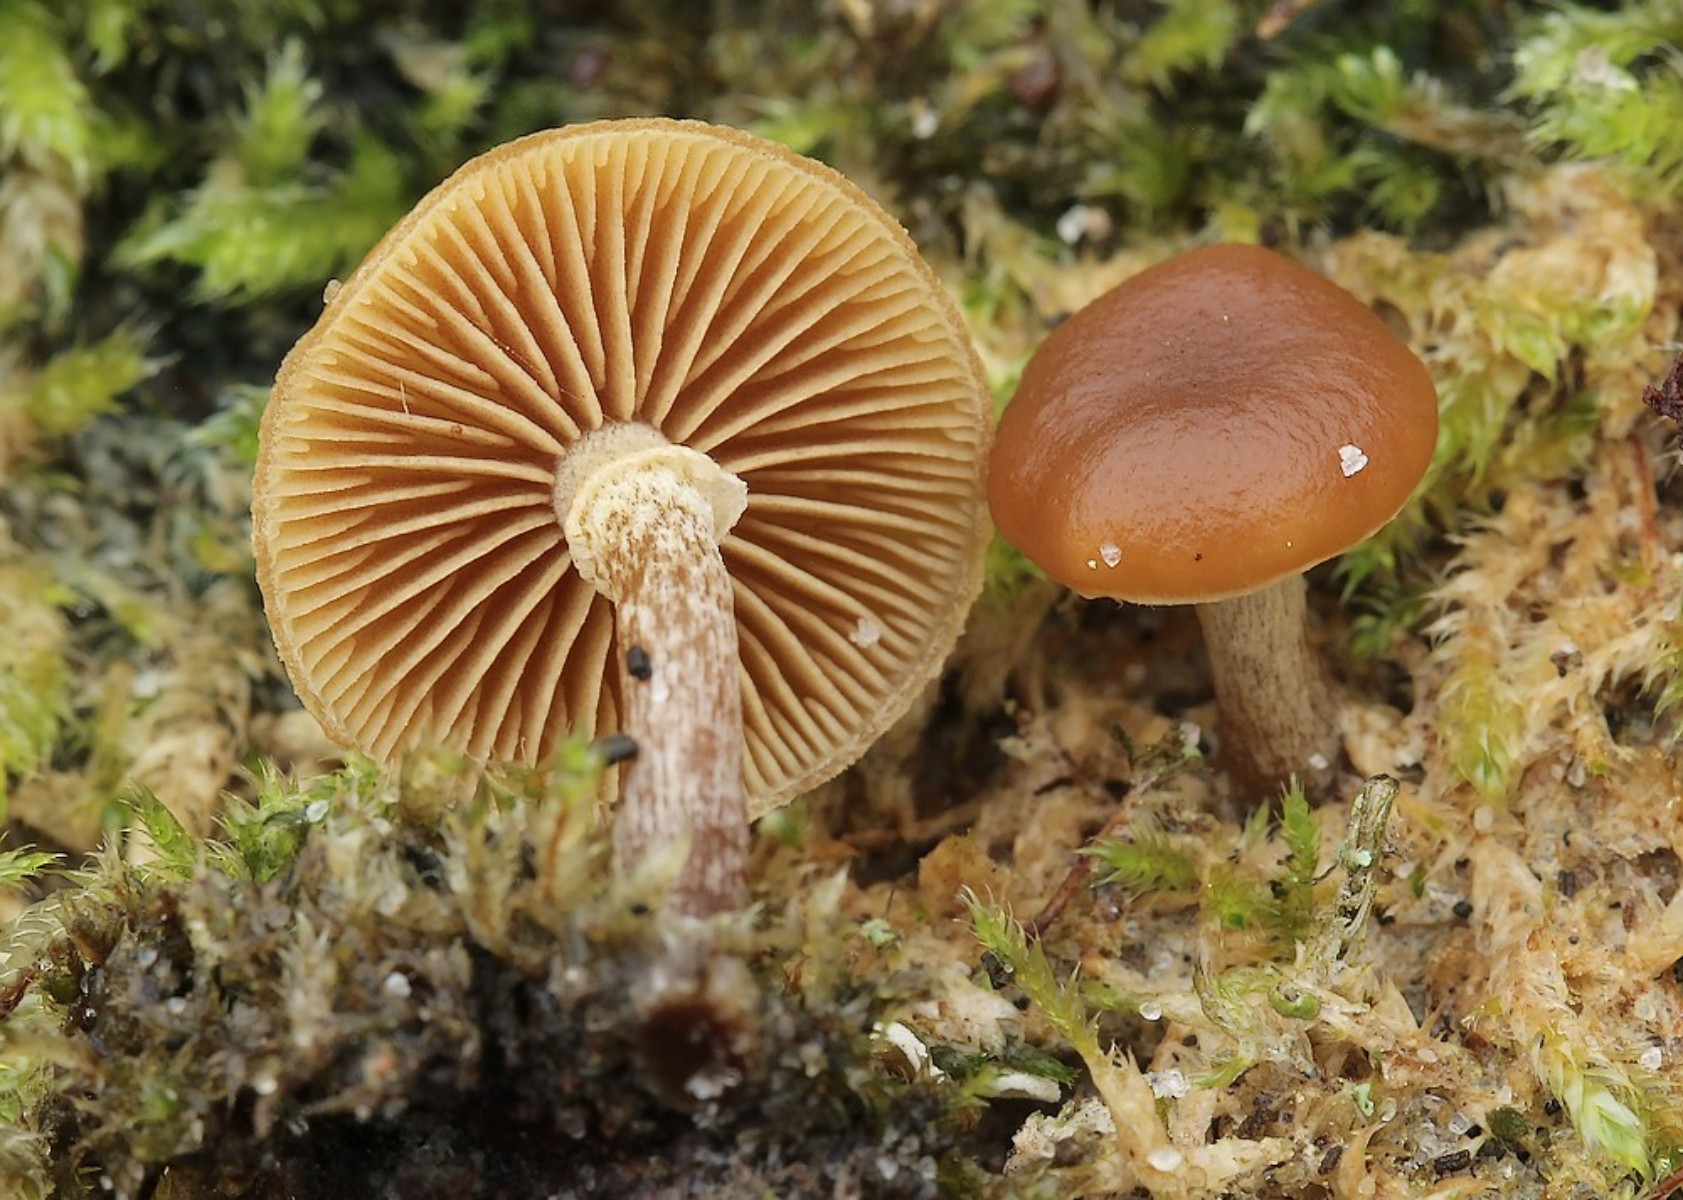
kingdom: Fungi
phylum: Basidiomycota
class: Agaricomycetes
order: Agaricales
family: Hymenogastraceae
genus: Galerina
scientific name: Galerina esteve-raventosii
